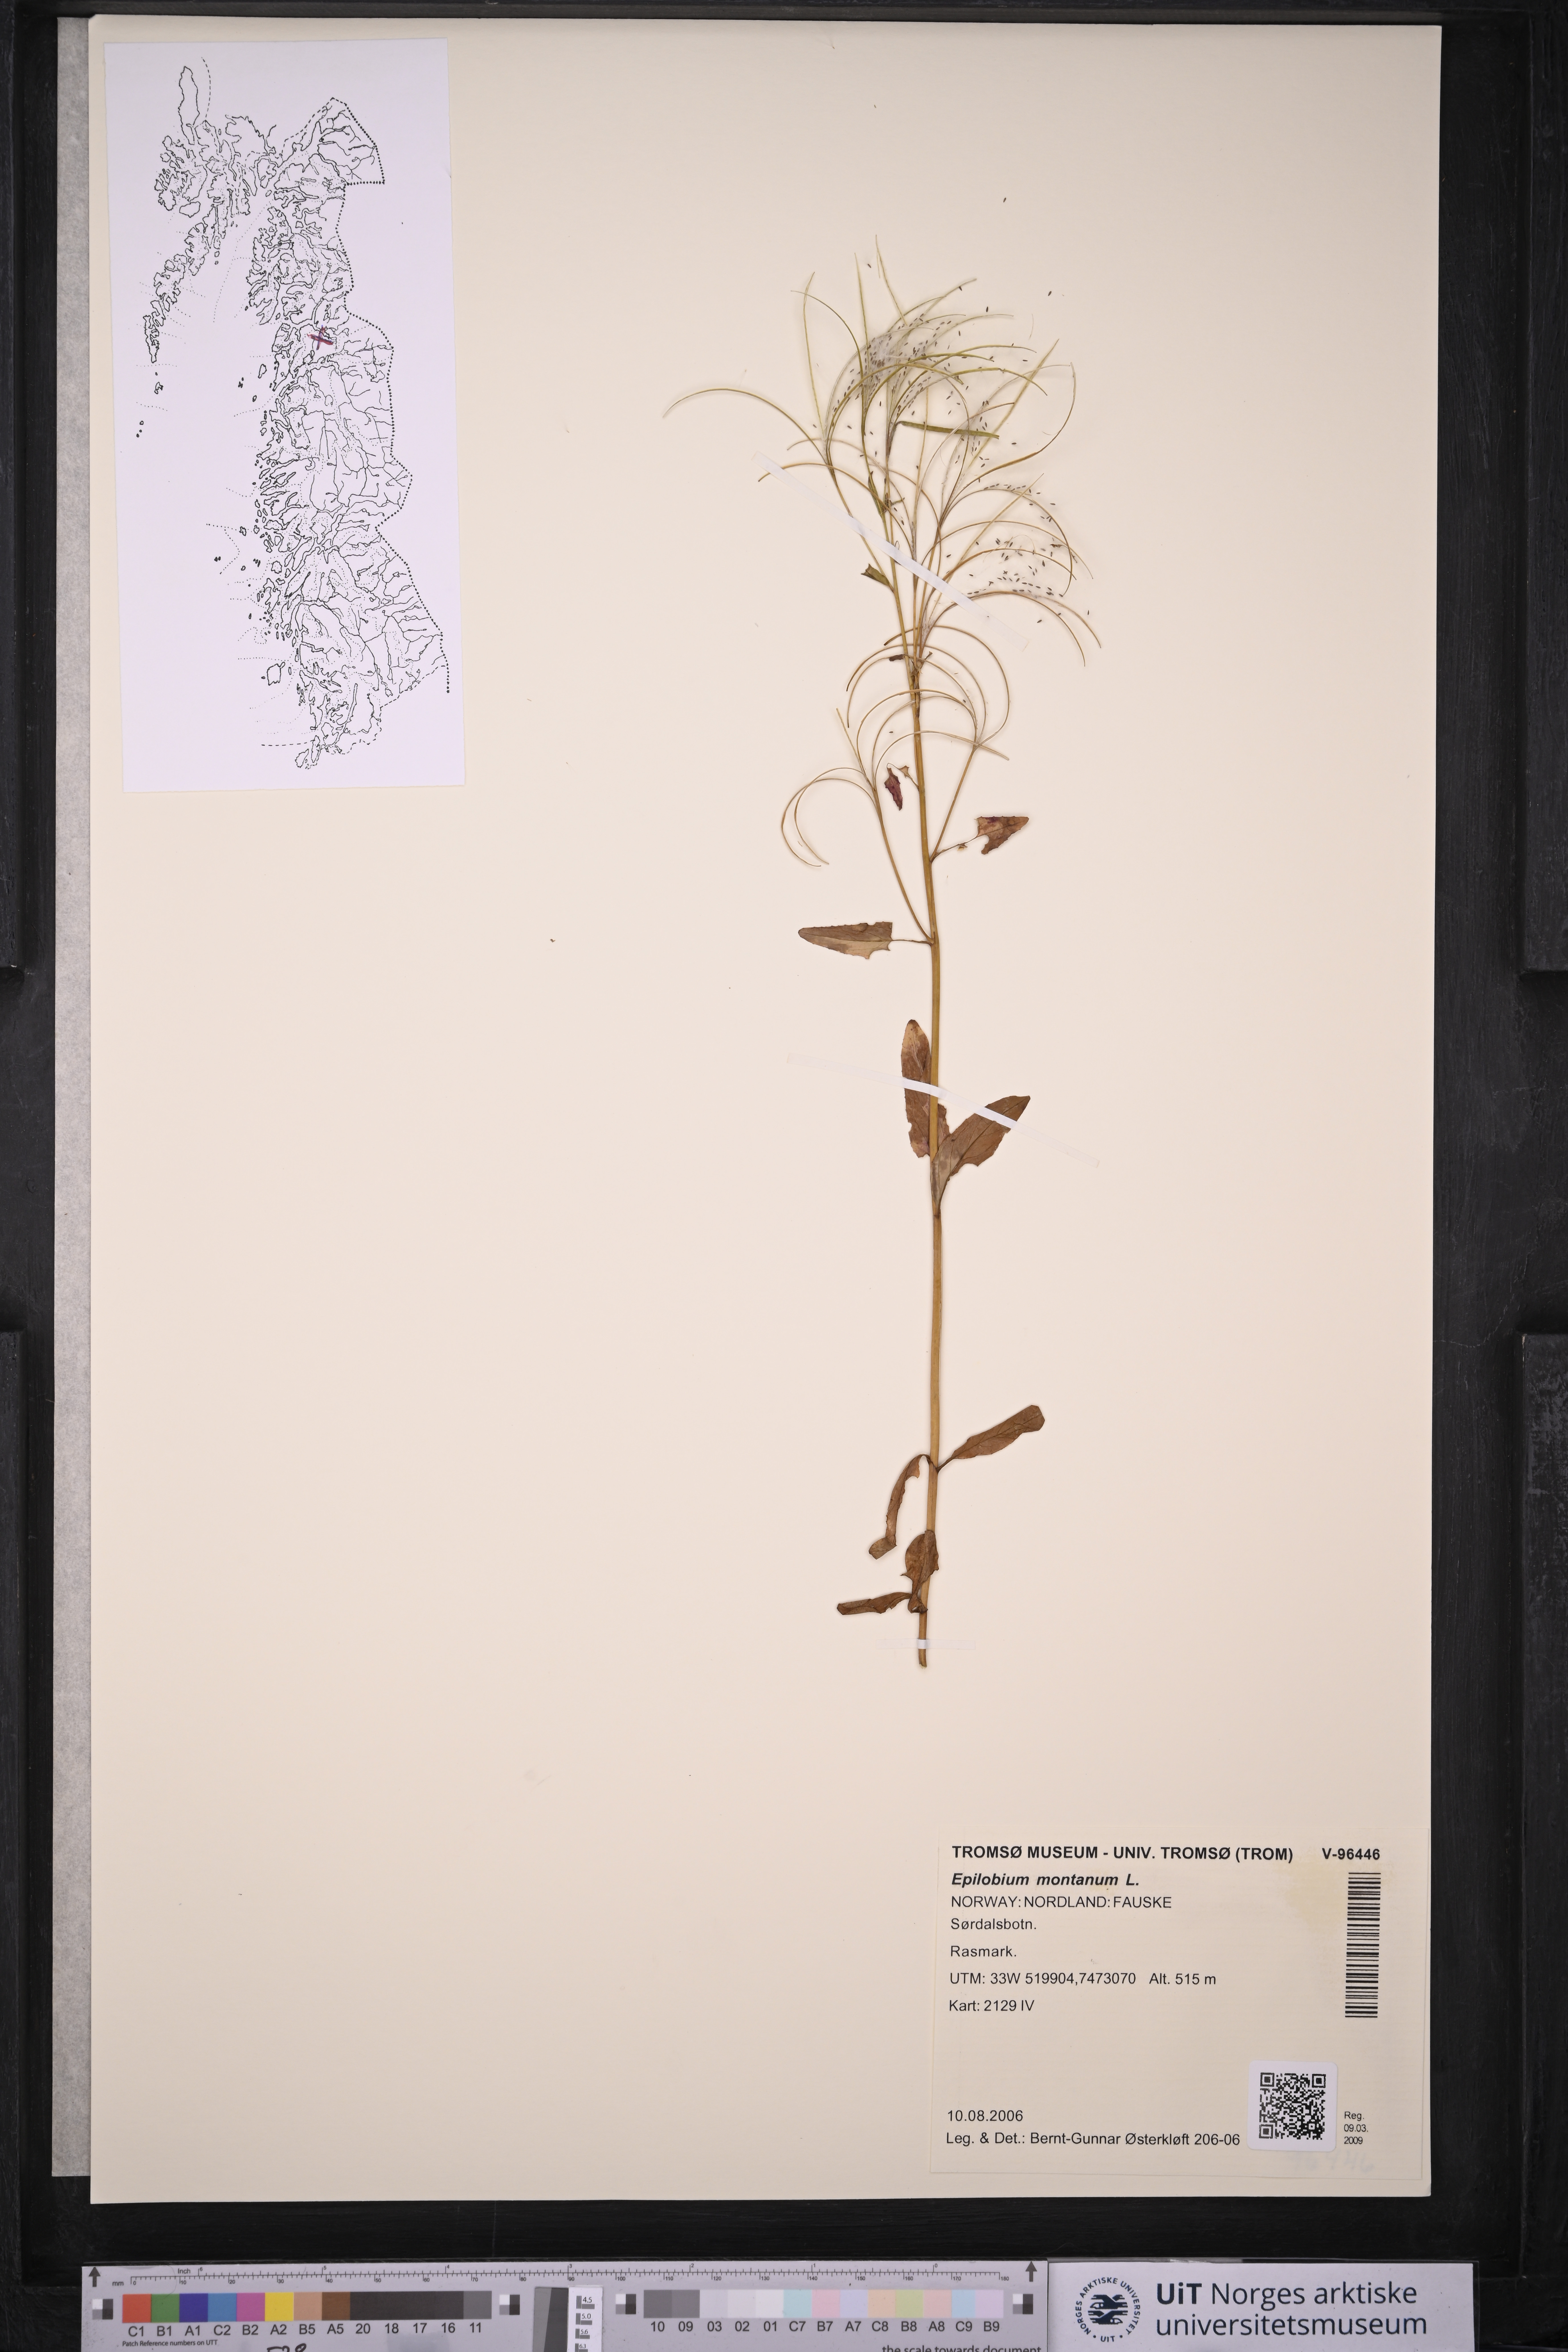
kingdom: Plantae
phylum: Tracheophyta
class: Magnoliopsida
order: Myrtales
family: Onagraceae
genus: Epilobium
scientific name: Epilobium montanum
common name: Broad-leaved willowherb
